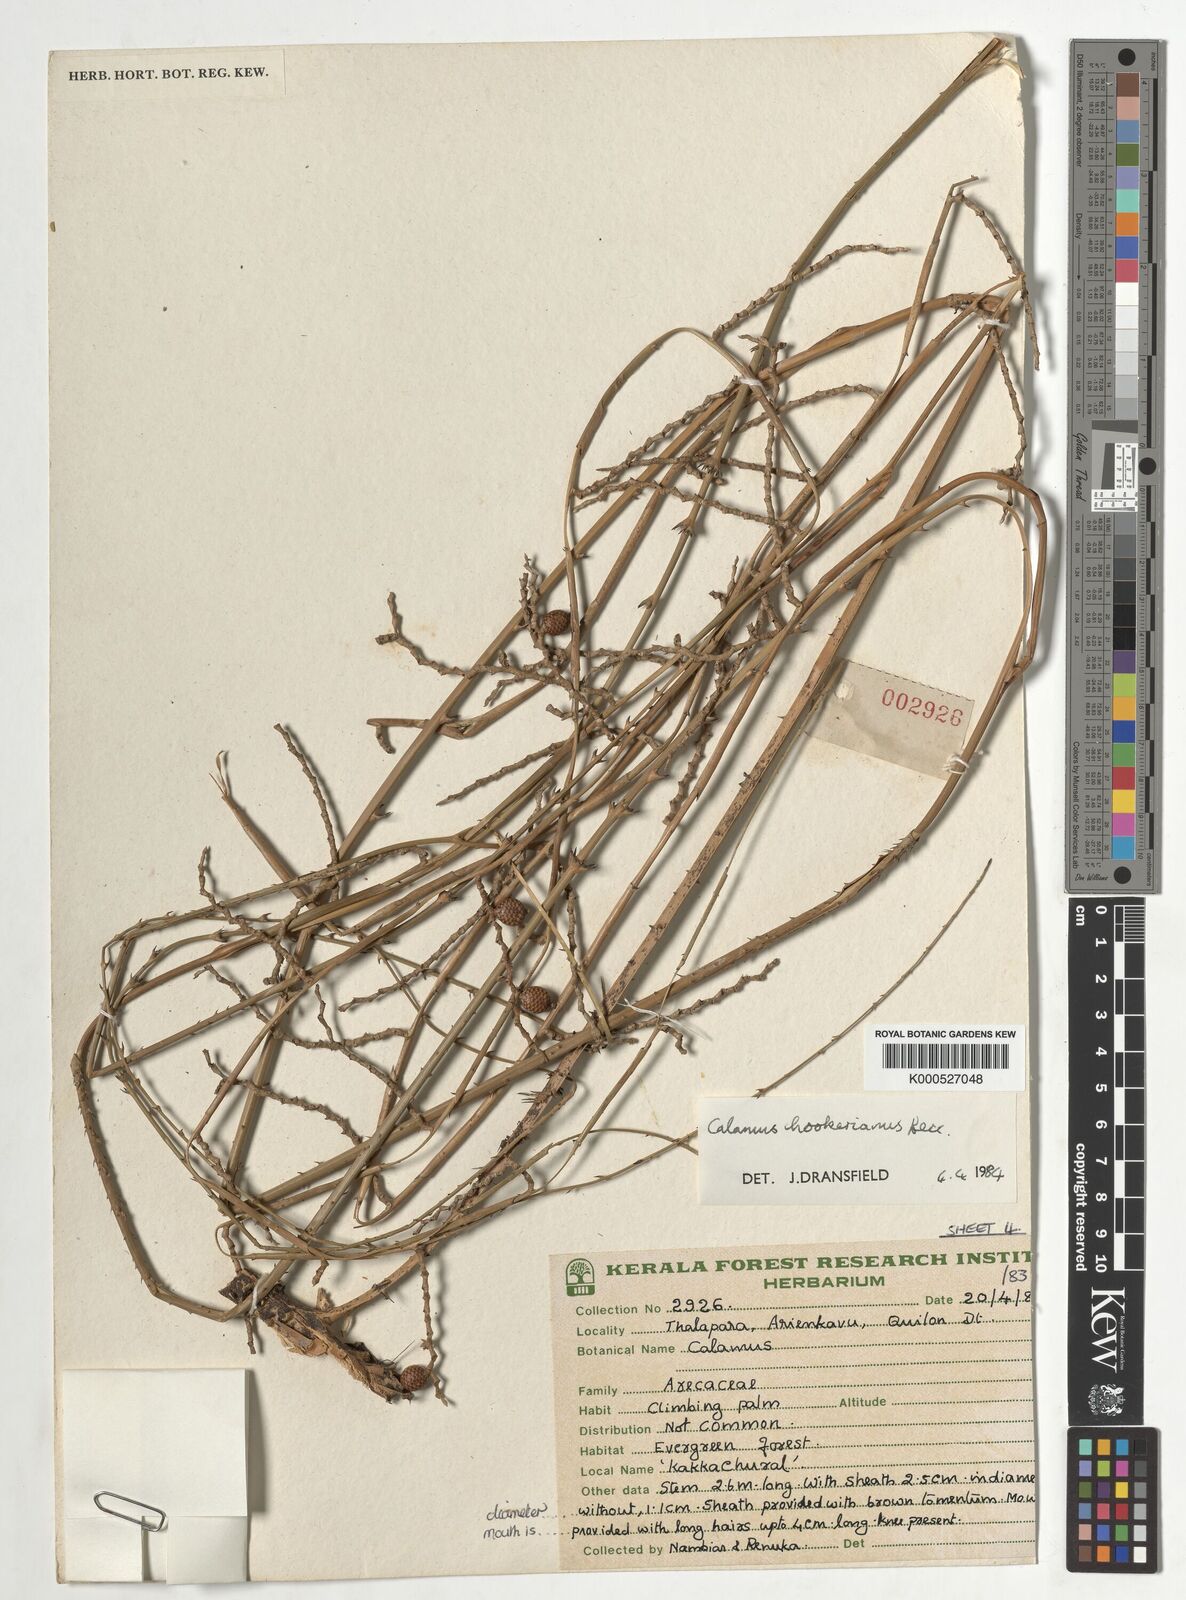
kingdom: Plantae
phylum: Tracheophyta
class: Liliopsida
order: Arecales
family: Arecaceae
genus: Calamus
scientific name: Calamus hookerianus
